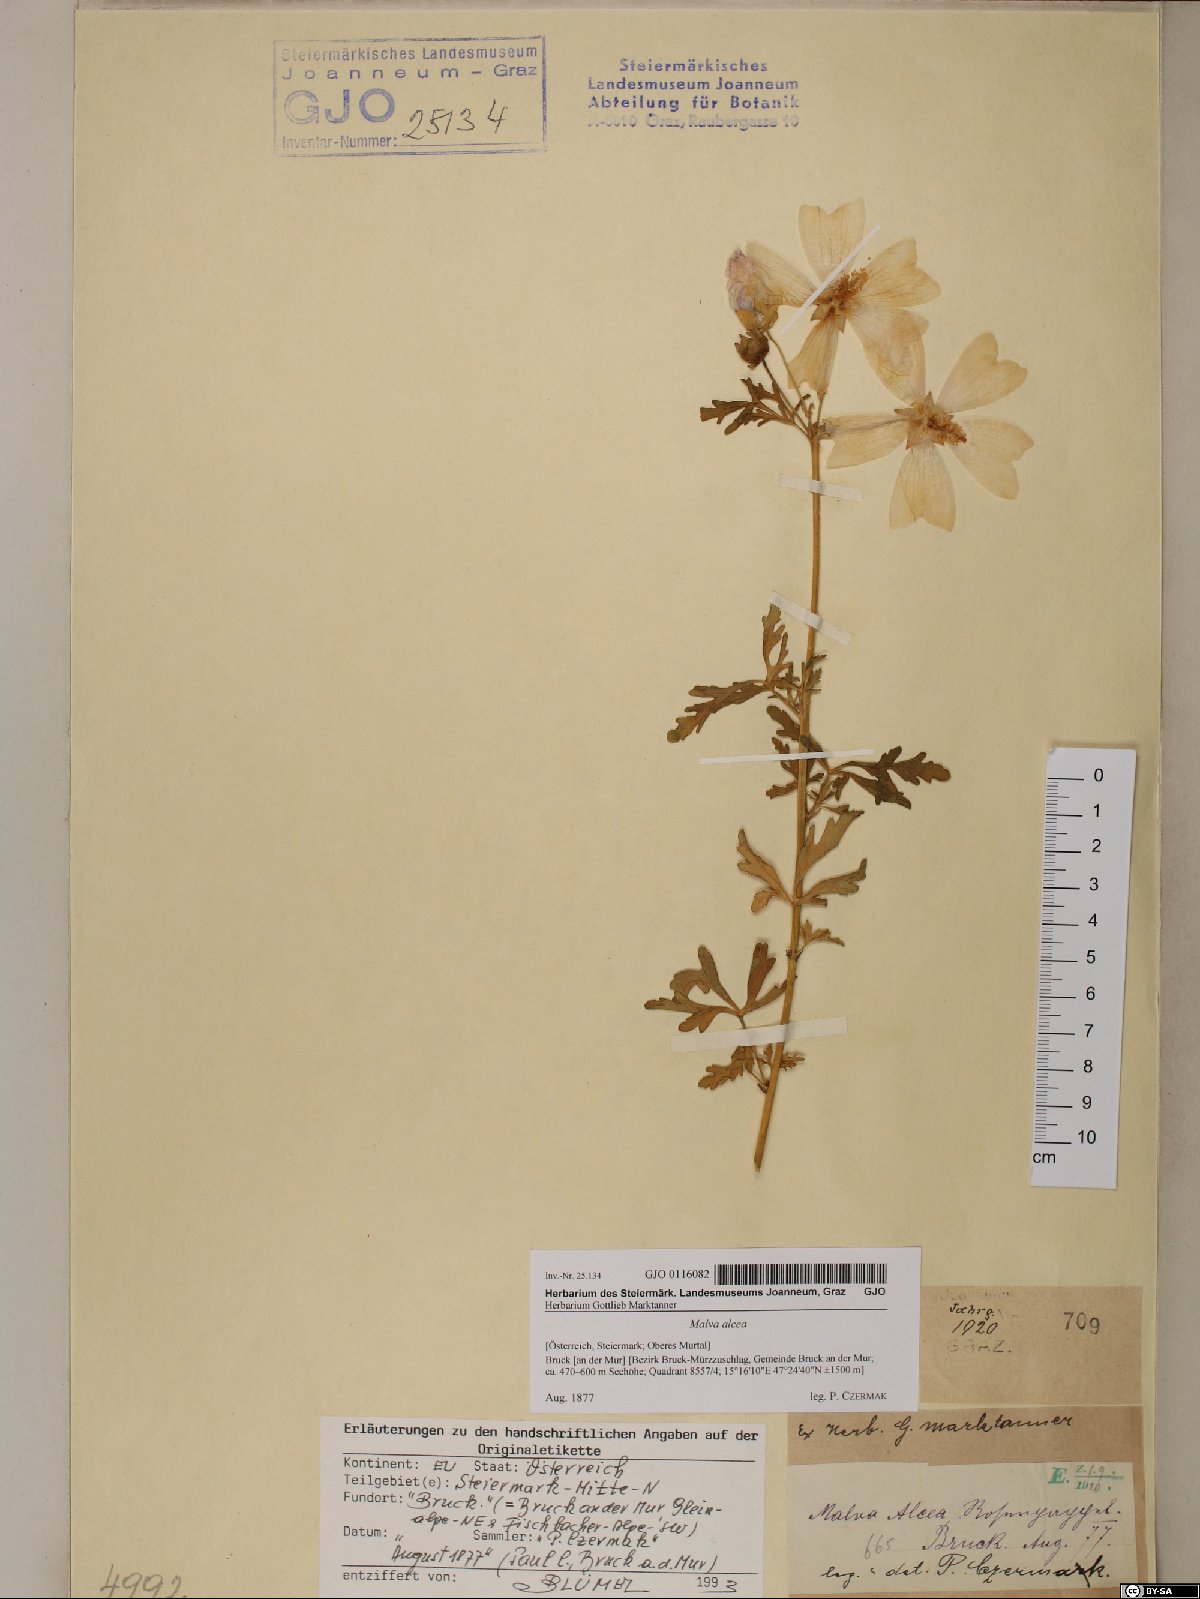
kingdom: Plantae
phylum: Tracheophyta
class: Magnoliopsida
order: Malvales
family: Malvaceae
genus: Malva
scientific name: Malva alcea
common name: Greater musk-mallow
